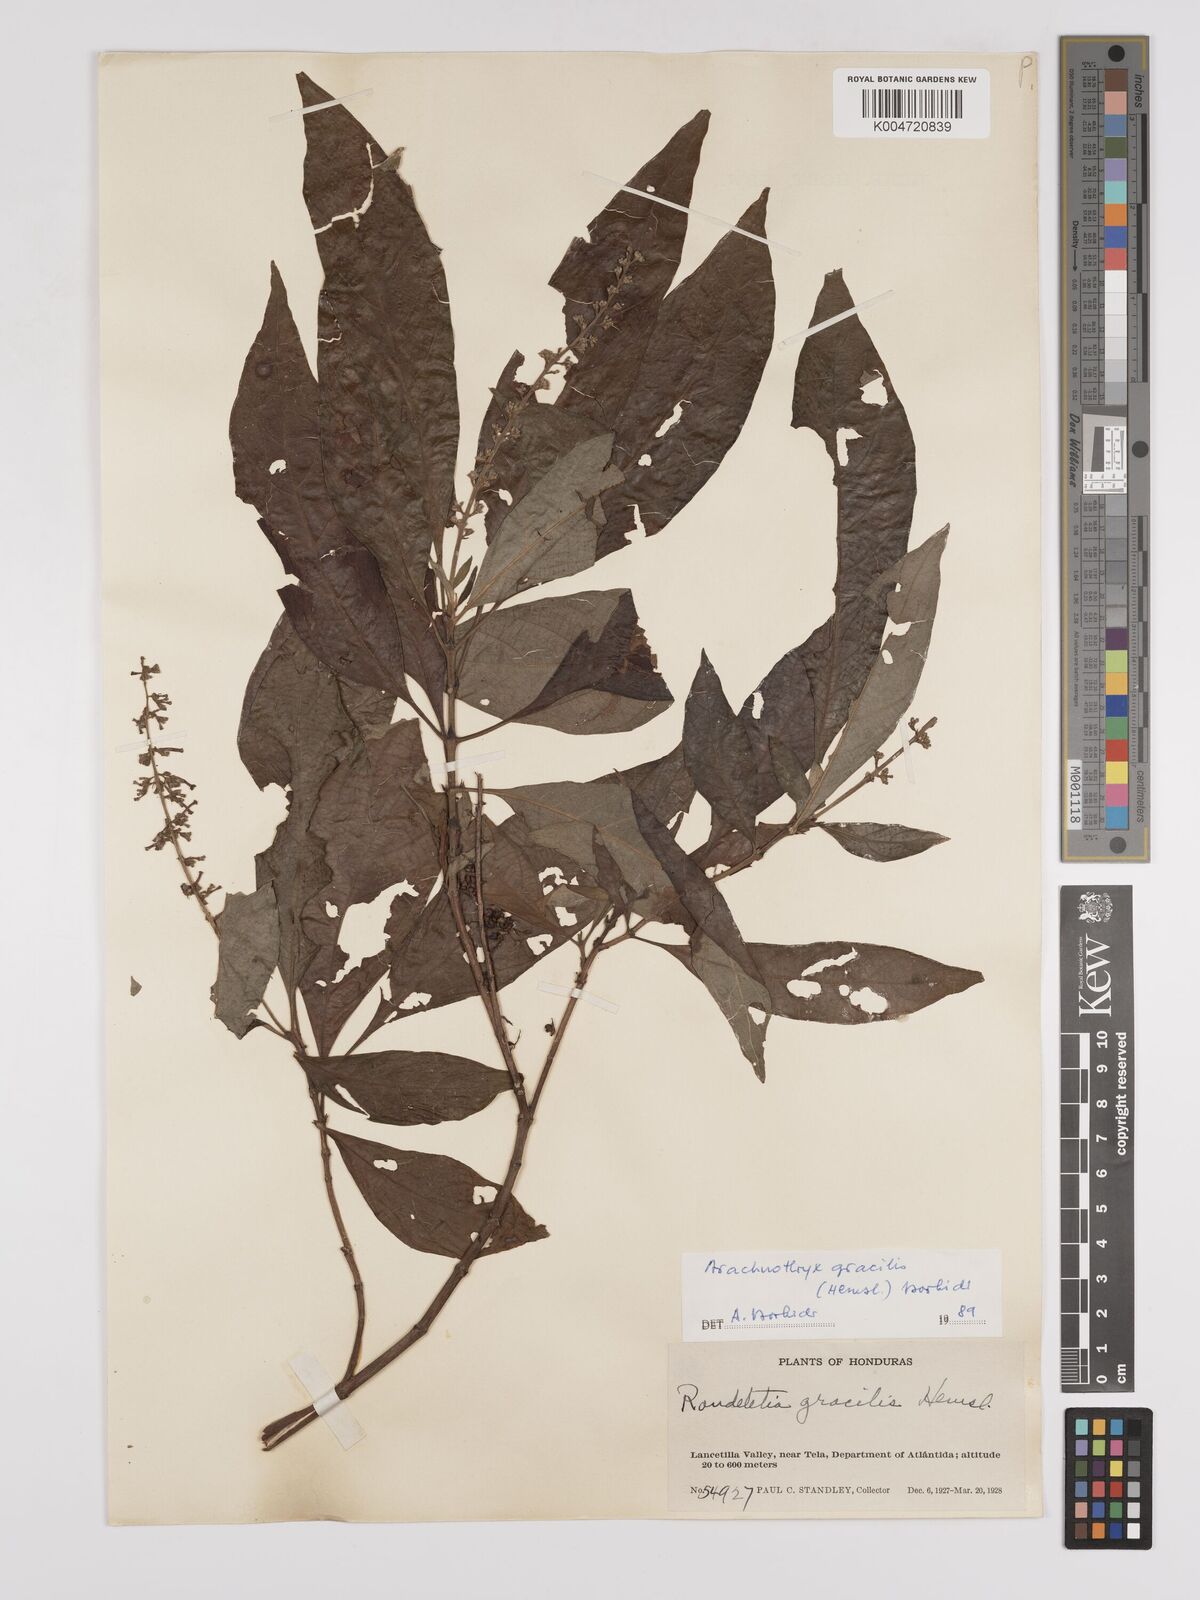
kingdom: Plantae
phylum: Tracheophyta
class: Magnoliopsida
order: Gentianales
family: Rubiaceae
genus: Arachnothryx
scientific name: Arachnothryx gracilis
